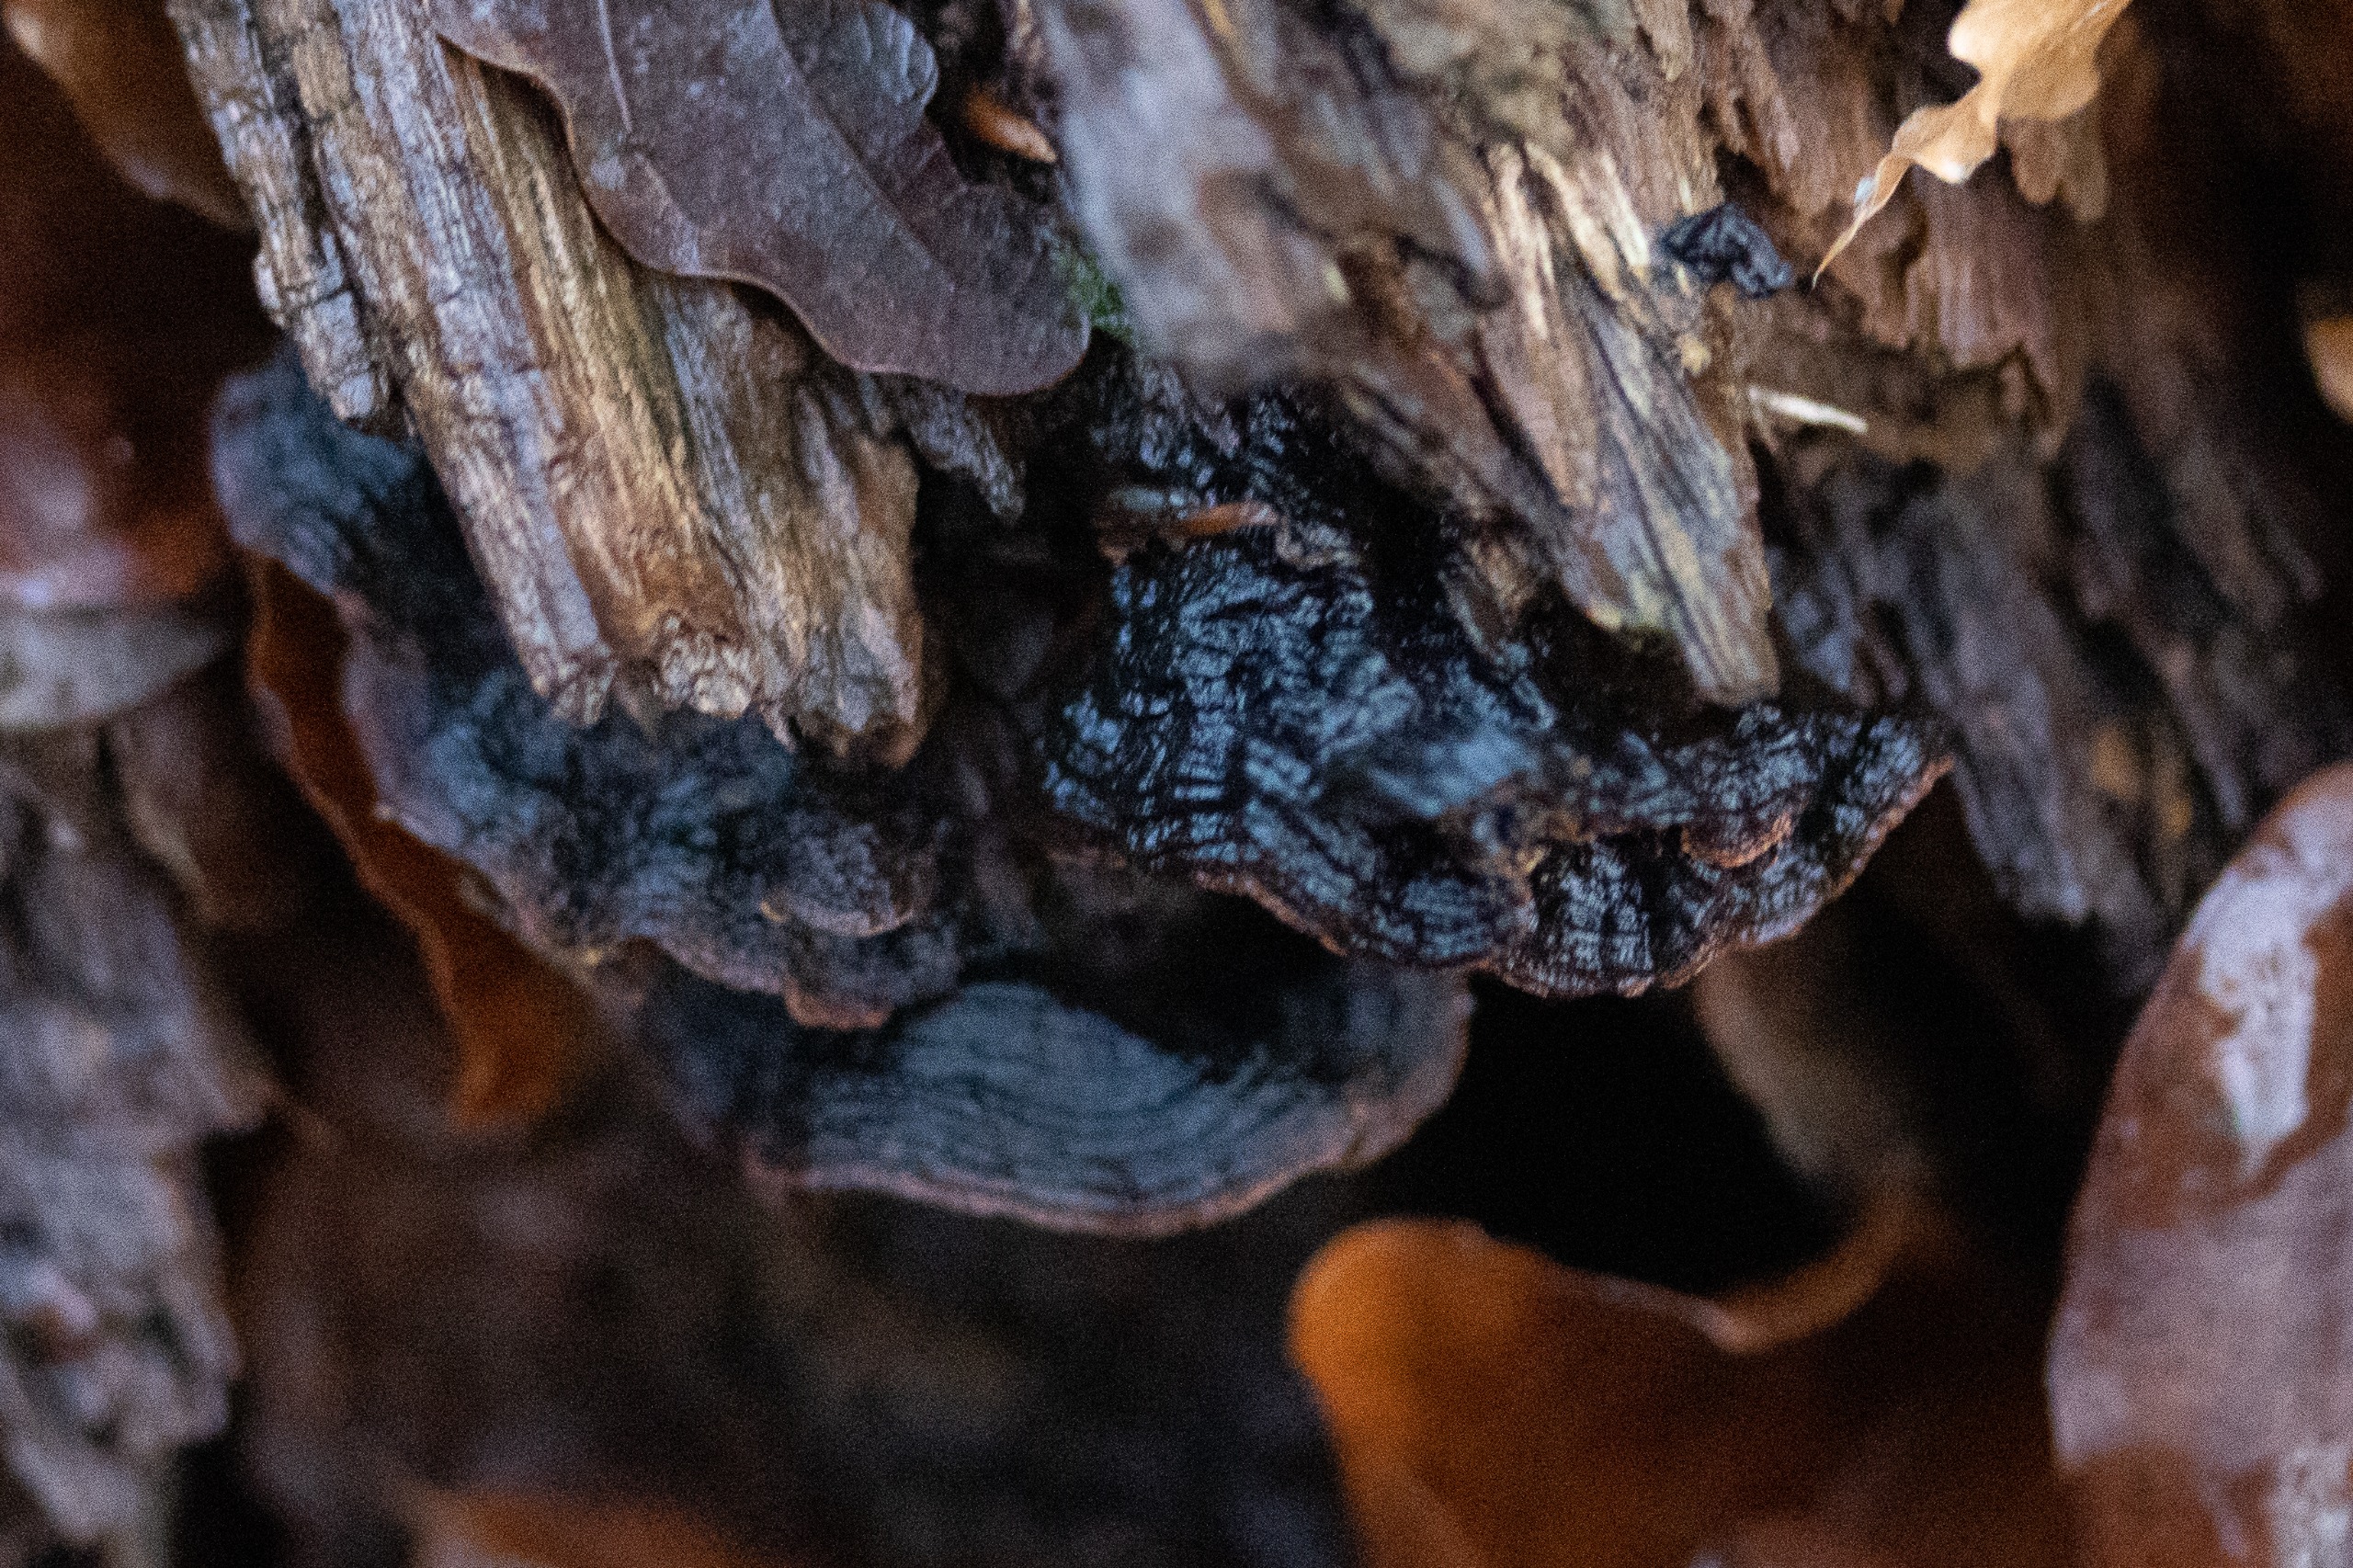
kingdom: Fungi
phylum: Basidiomycota
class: Agaricomycetes
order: Hymenochaetales
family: Hymenochaetaceae
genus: Hymenochaete
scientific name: Hymenochaete rubiginosa
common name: Stiv ruslædersvamp
